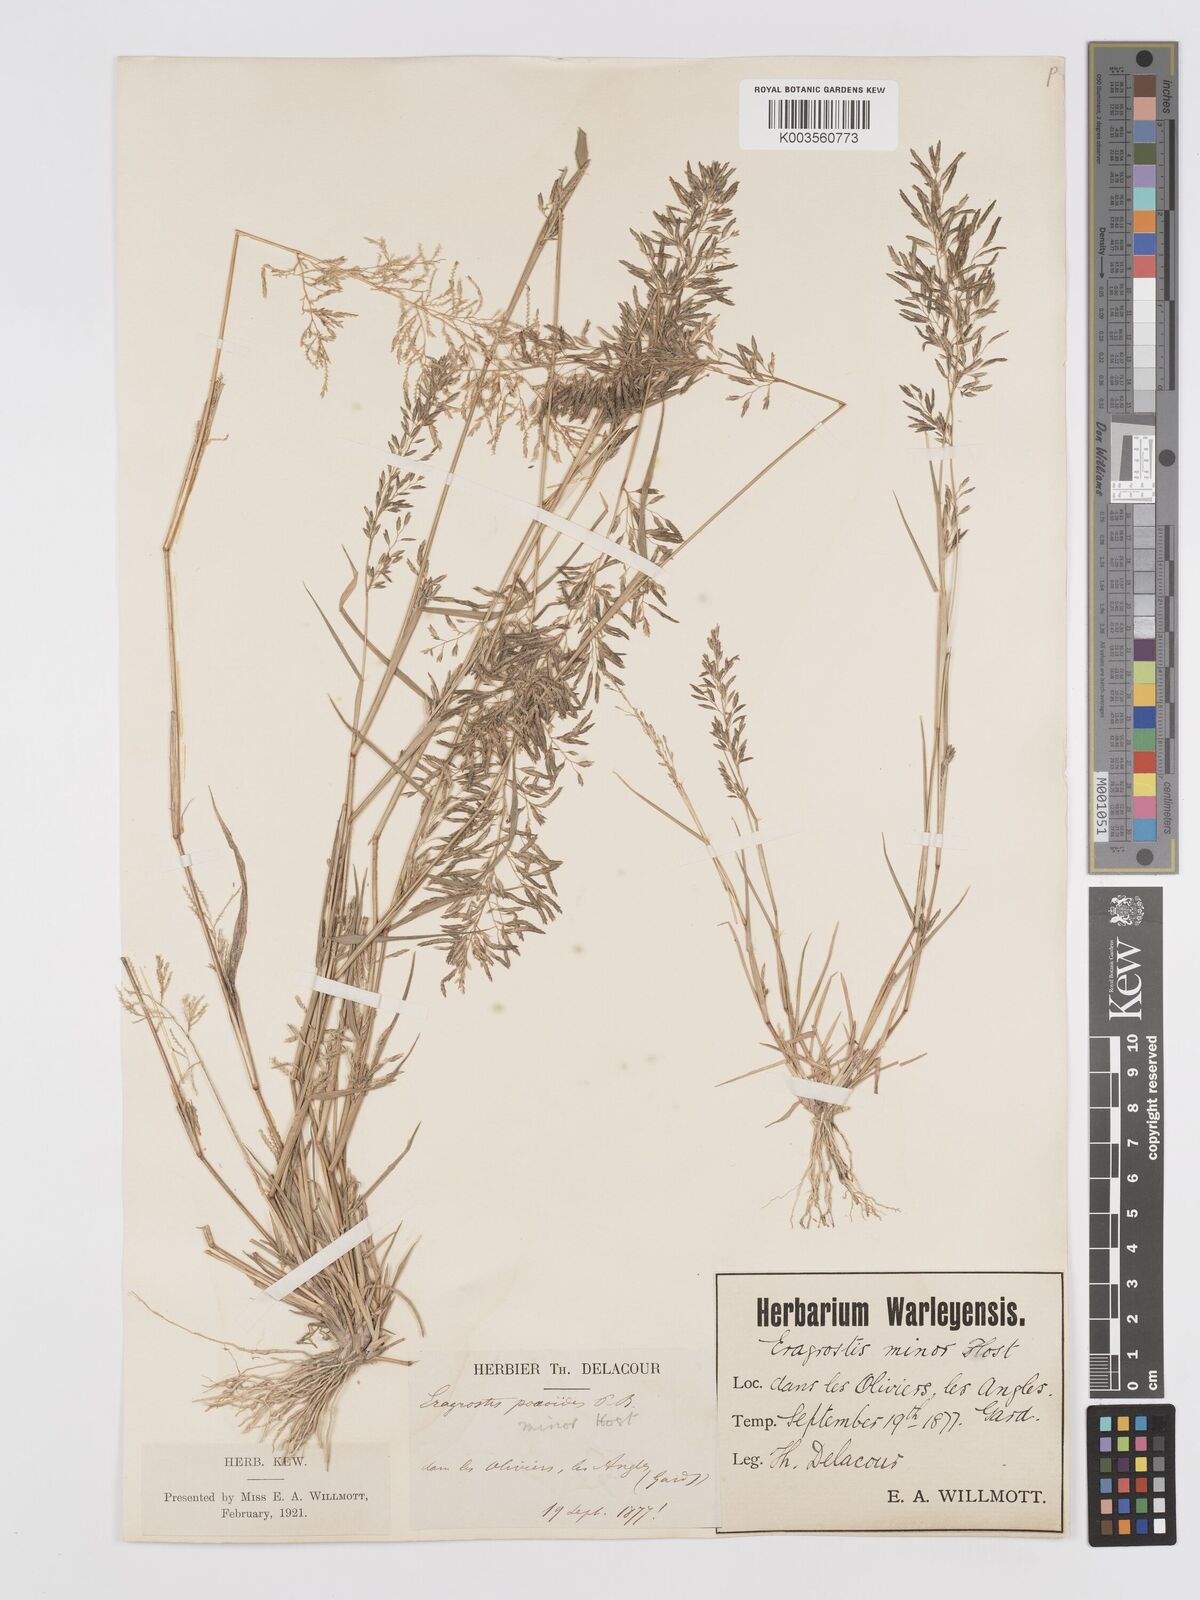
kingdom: Plantae
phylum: Tracheophyta
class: Liliopsida
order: Poales
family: Poaceae
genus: Eragrostis
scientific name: Eragrostis barrelieri
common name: Mediterranean lovegrass
